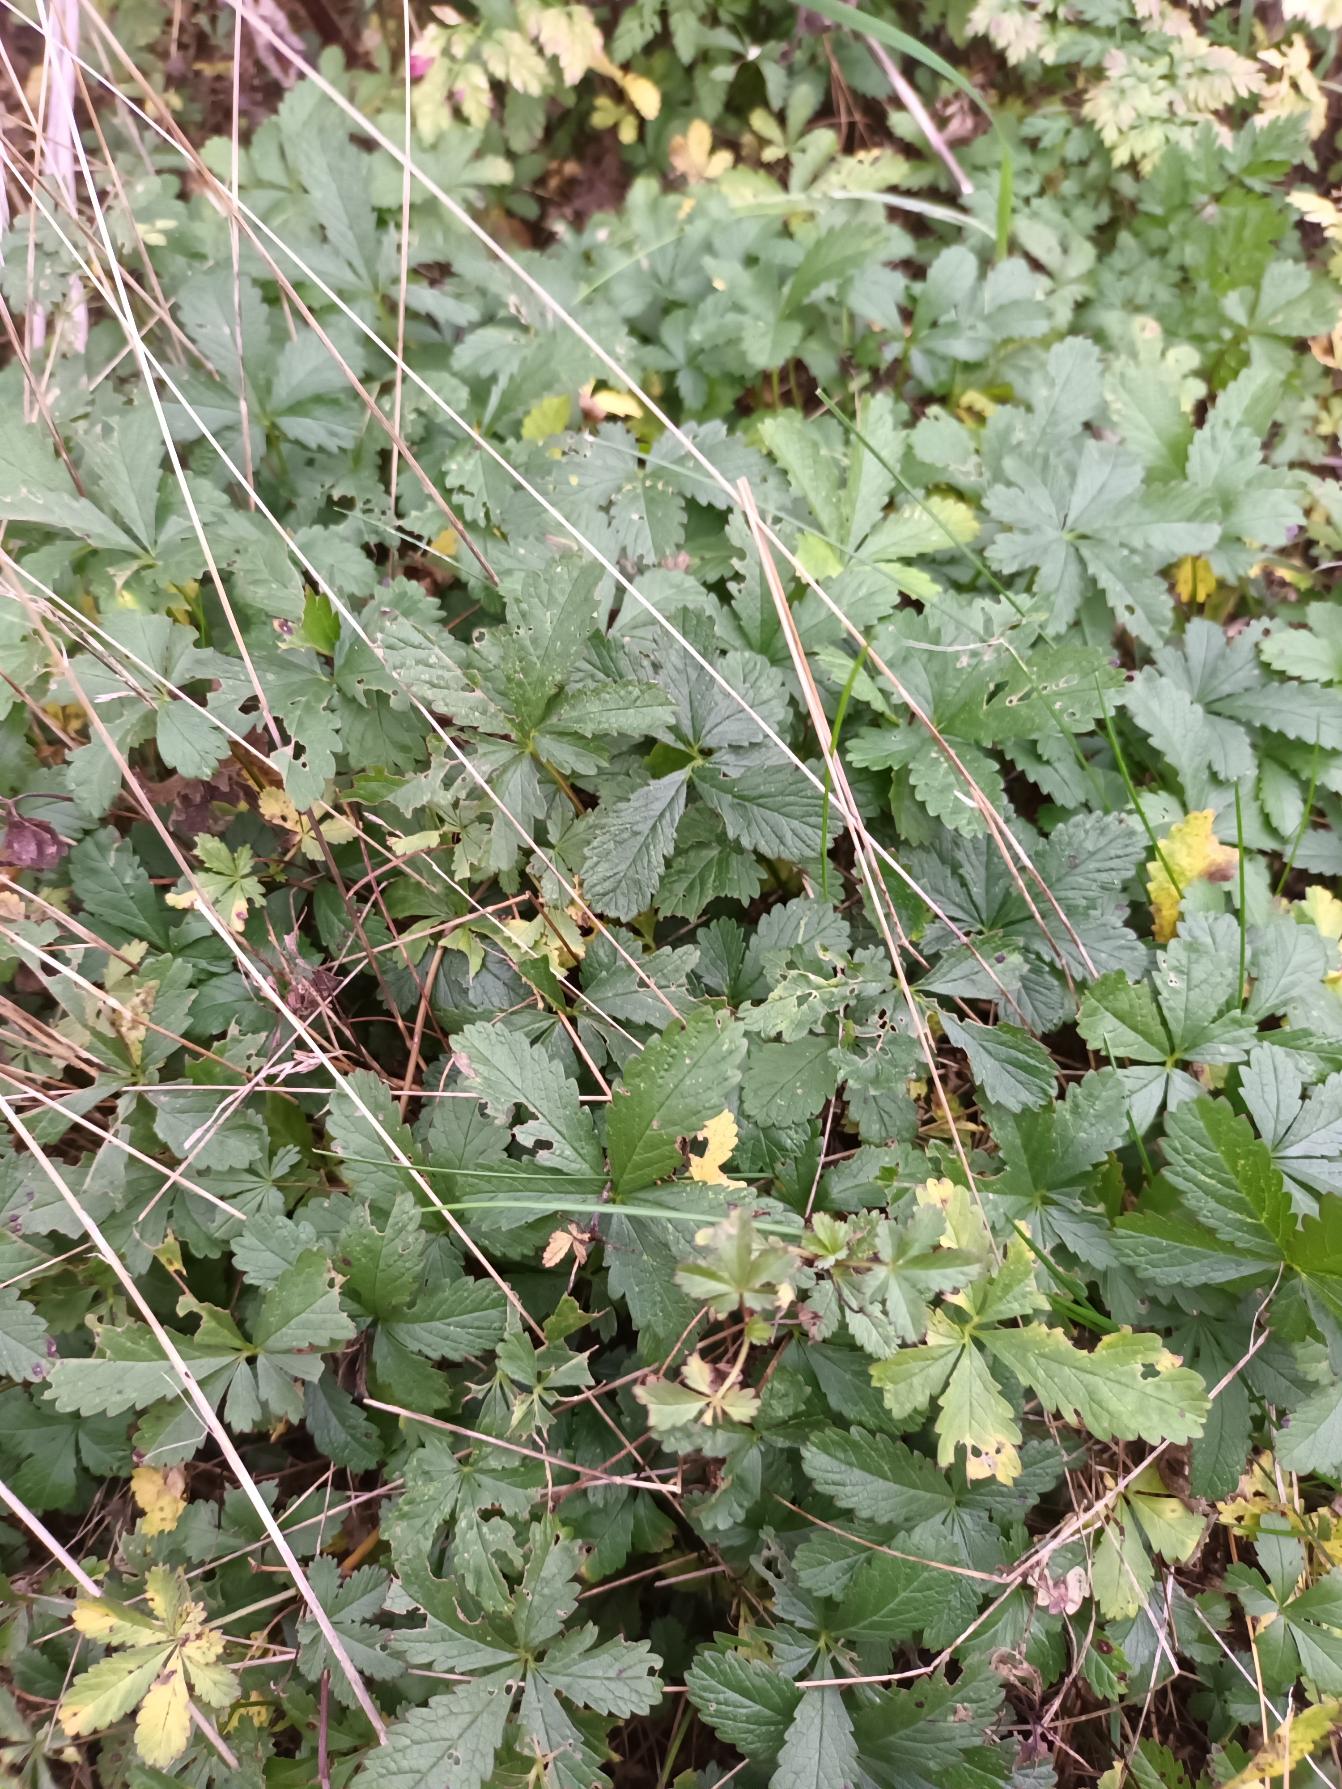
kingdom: Plantae
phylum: Tracheophyta
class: Magnoliopsida
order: Rosales
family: Rosaceae
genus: Potentilla
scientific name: Potentilla reptans
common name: Krybende potentil
